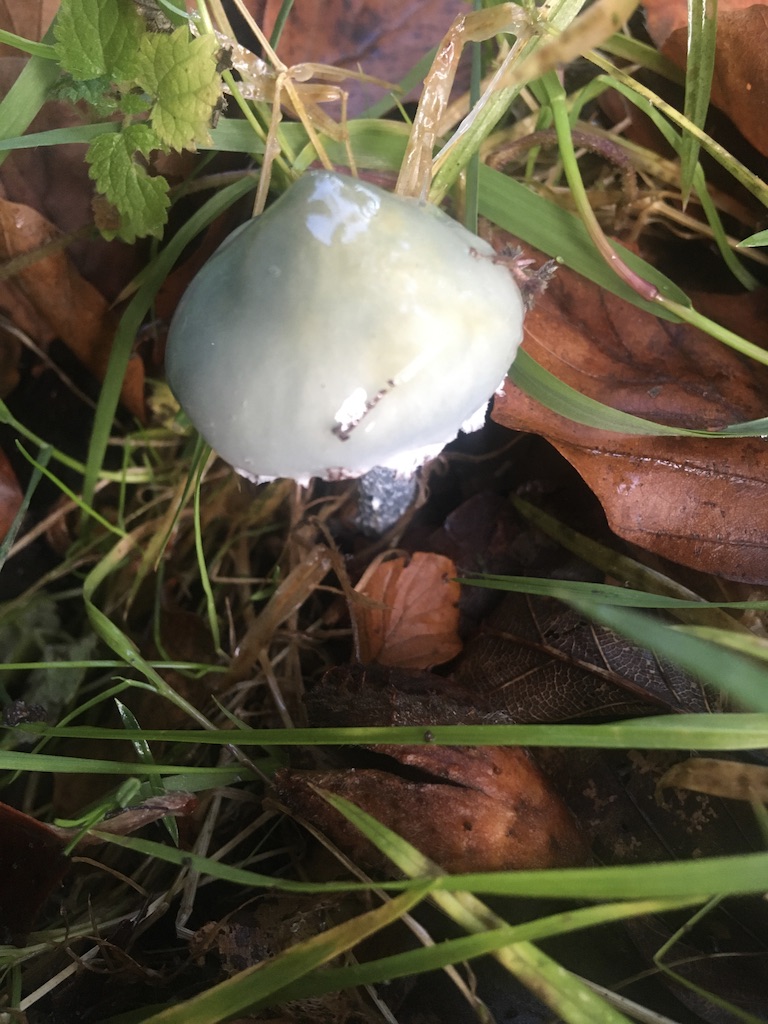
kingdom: Fungi
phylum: Basidiomycota
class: Agaricomycetes
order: Agaricales
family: Strophariaceae
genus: Stropharia
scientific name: Stropharia cyanea
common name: blågrøn bredblad
